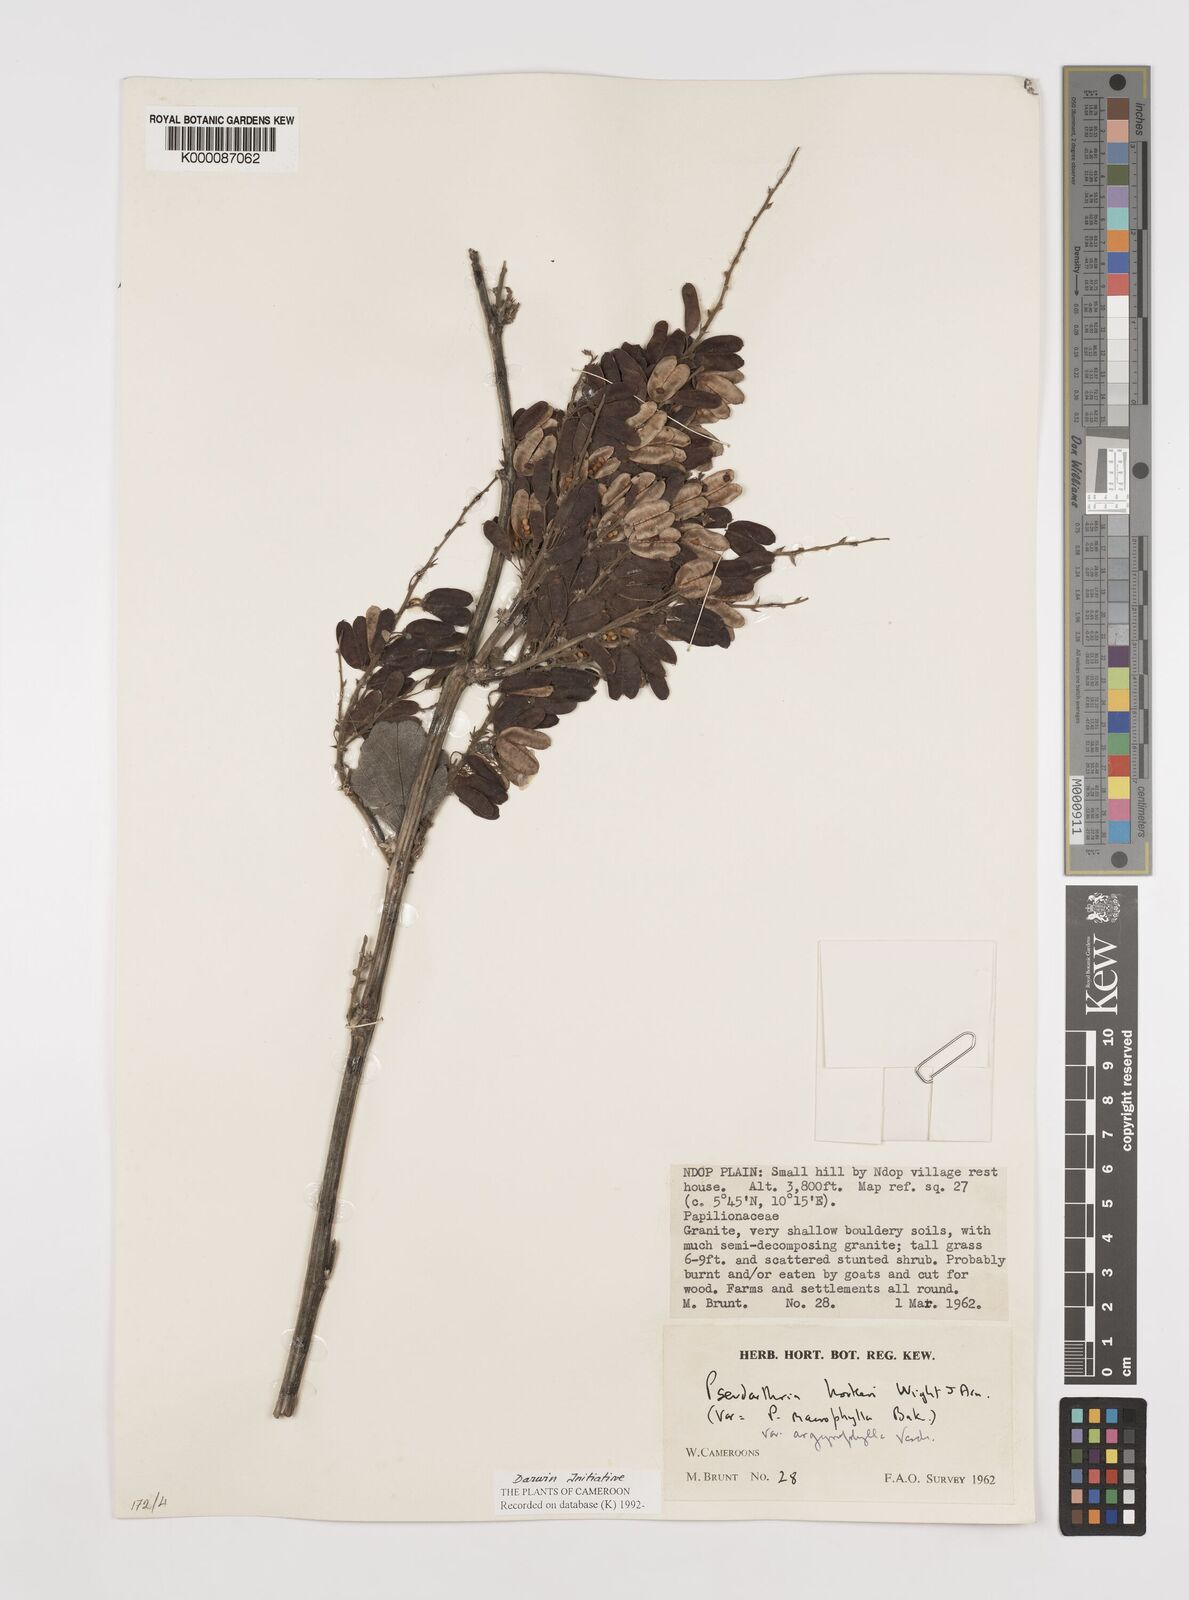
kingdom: Plantae
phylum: Tracheophyta
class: Magnoliopsida
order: Fabales
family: Fabaceae
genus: Pseudarthria
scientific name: Pseudarthria hookeri
